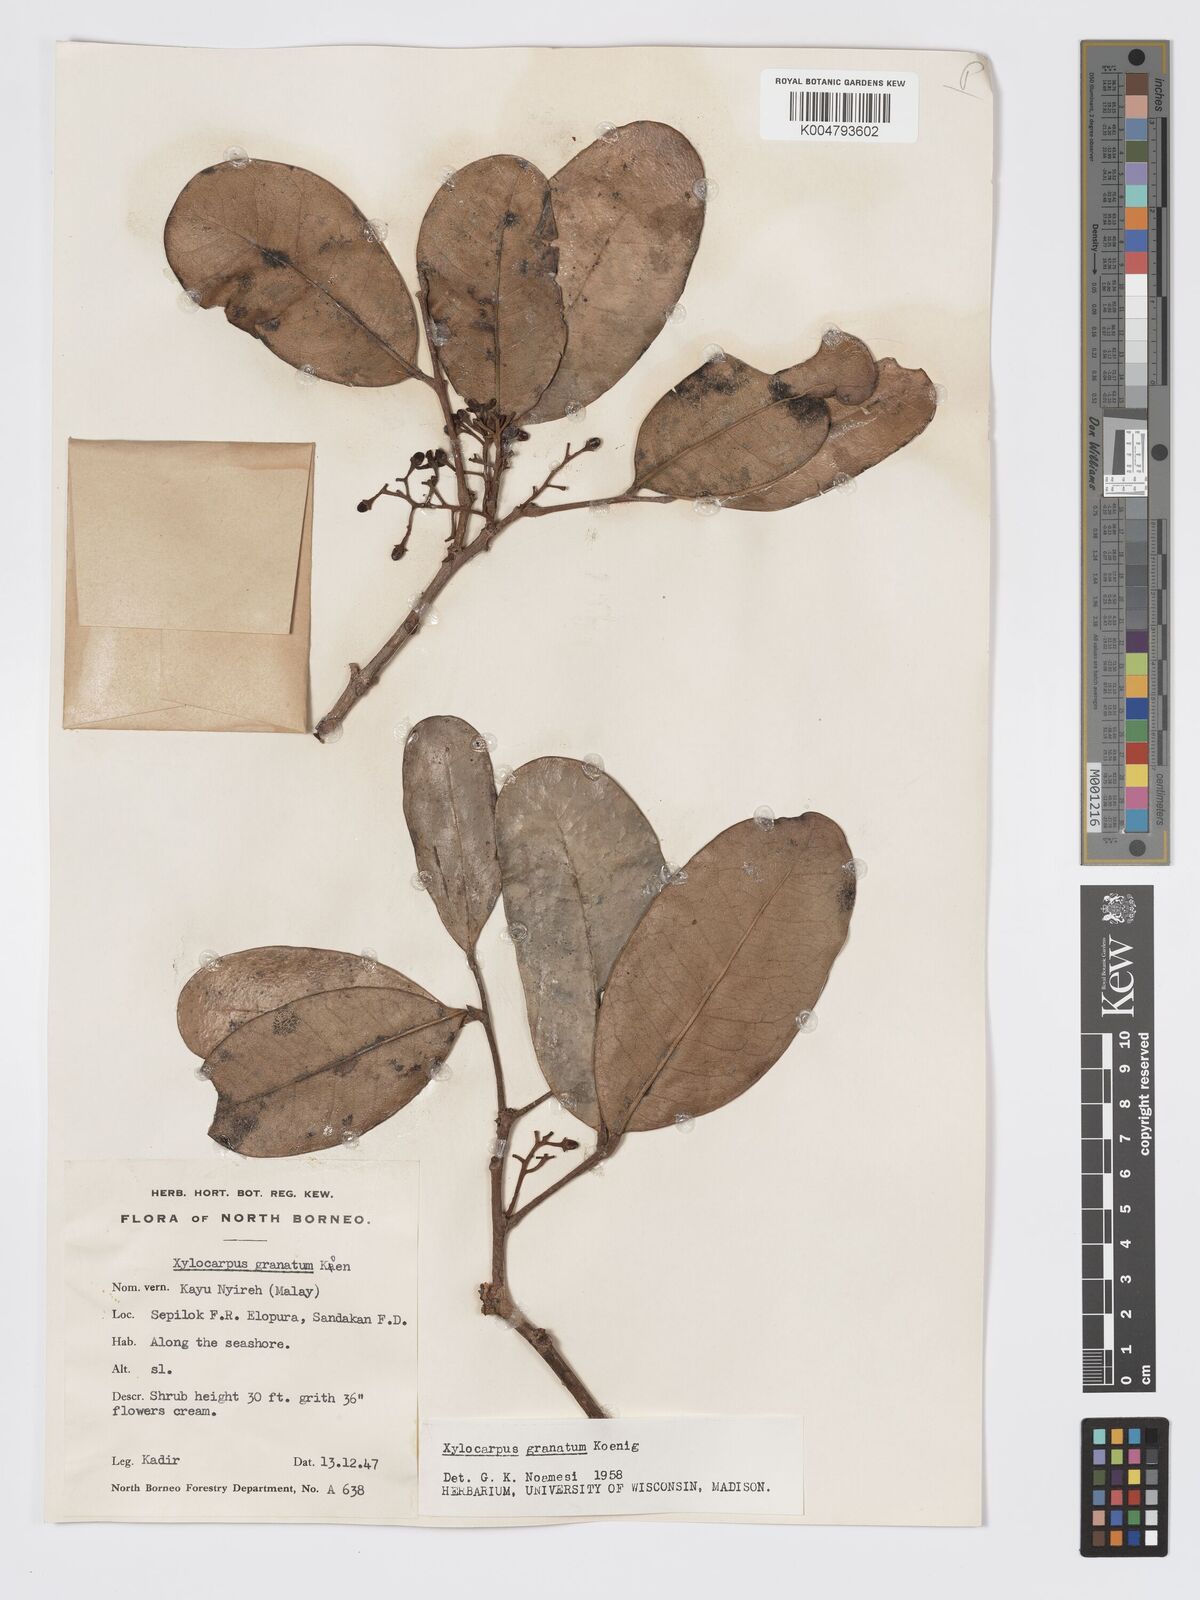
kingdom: Plantae
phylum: Tracheophyta
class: Magnoliopsida
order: Sapindales
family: Meliaceae
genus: Xylocarpus
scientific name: Xylocarpus granatum
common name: Apple mangrove
